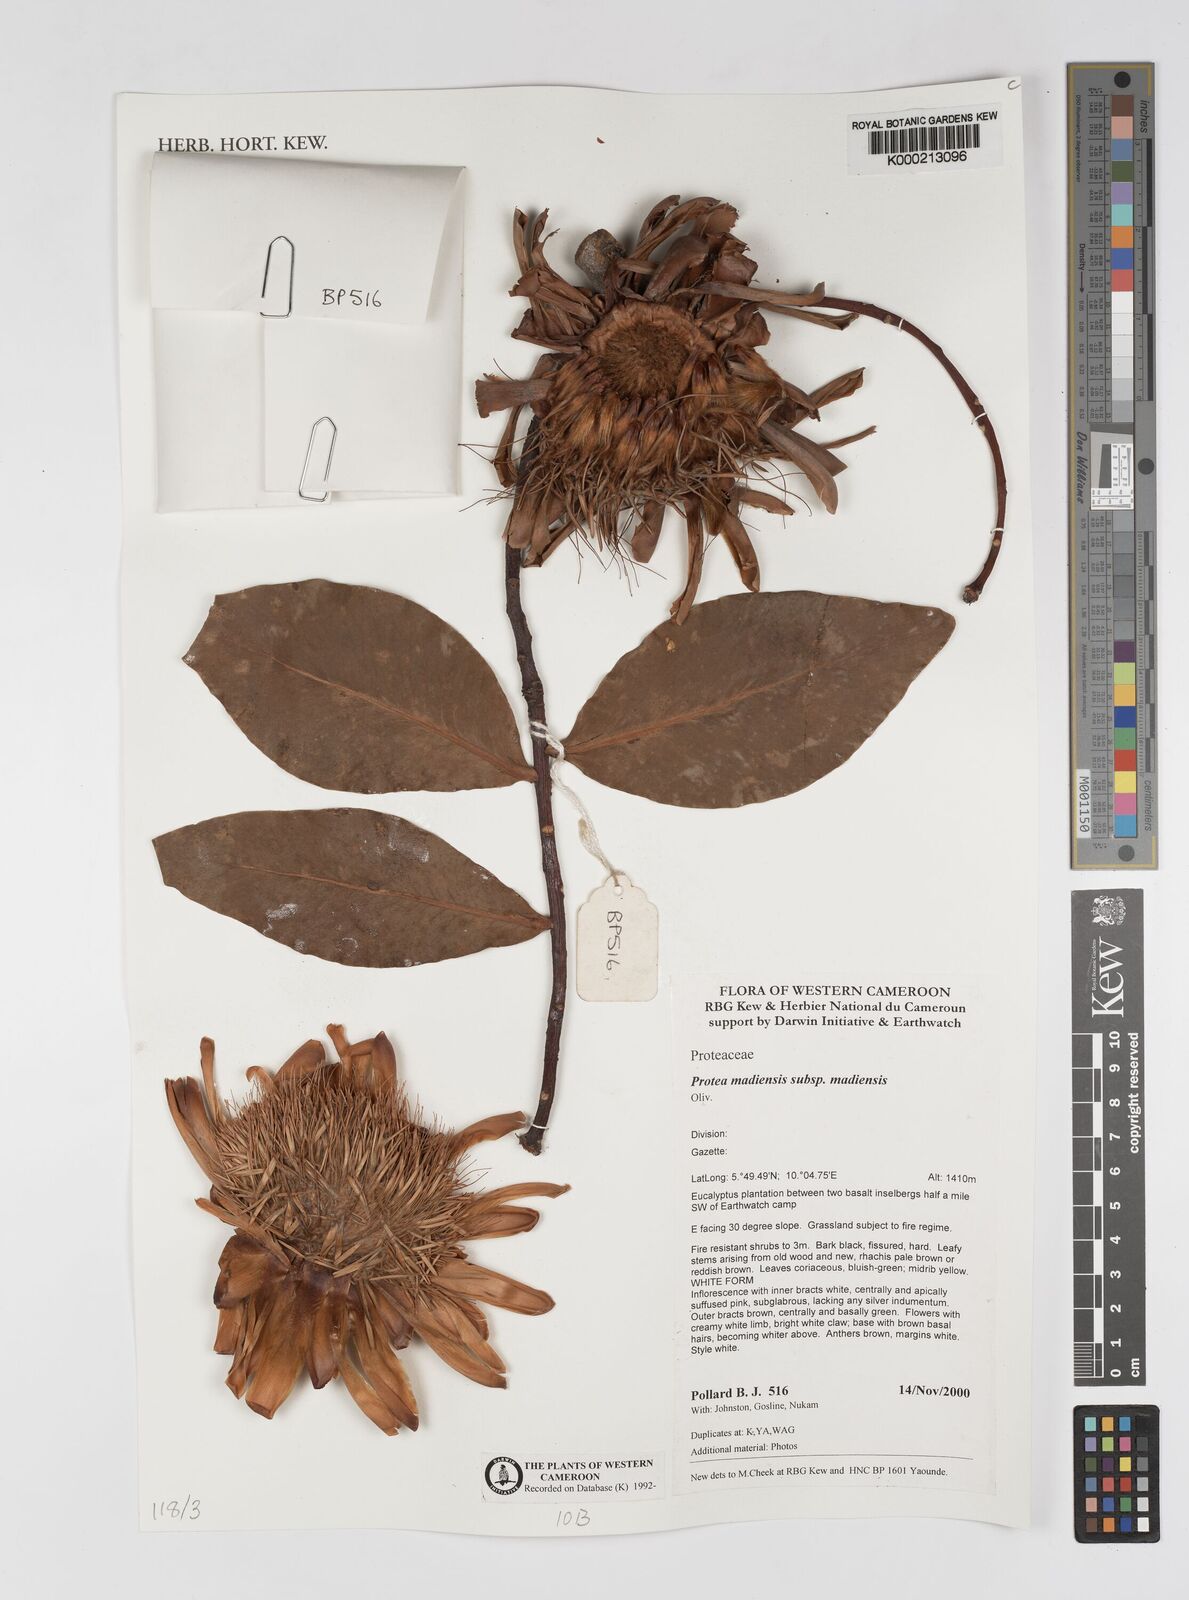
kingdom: Plantae
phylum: Tracheophyta
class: Magnoliopsida
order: Proteales
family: Proteaceae
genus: Protea
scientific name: Protea madiensis
